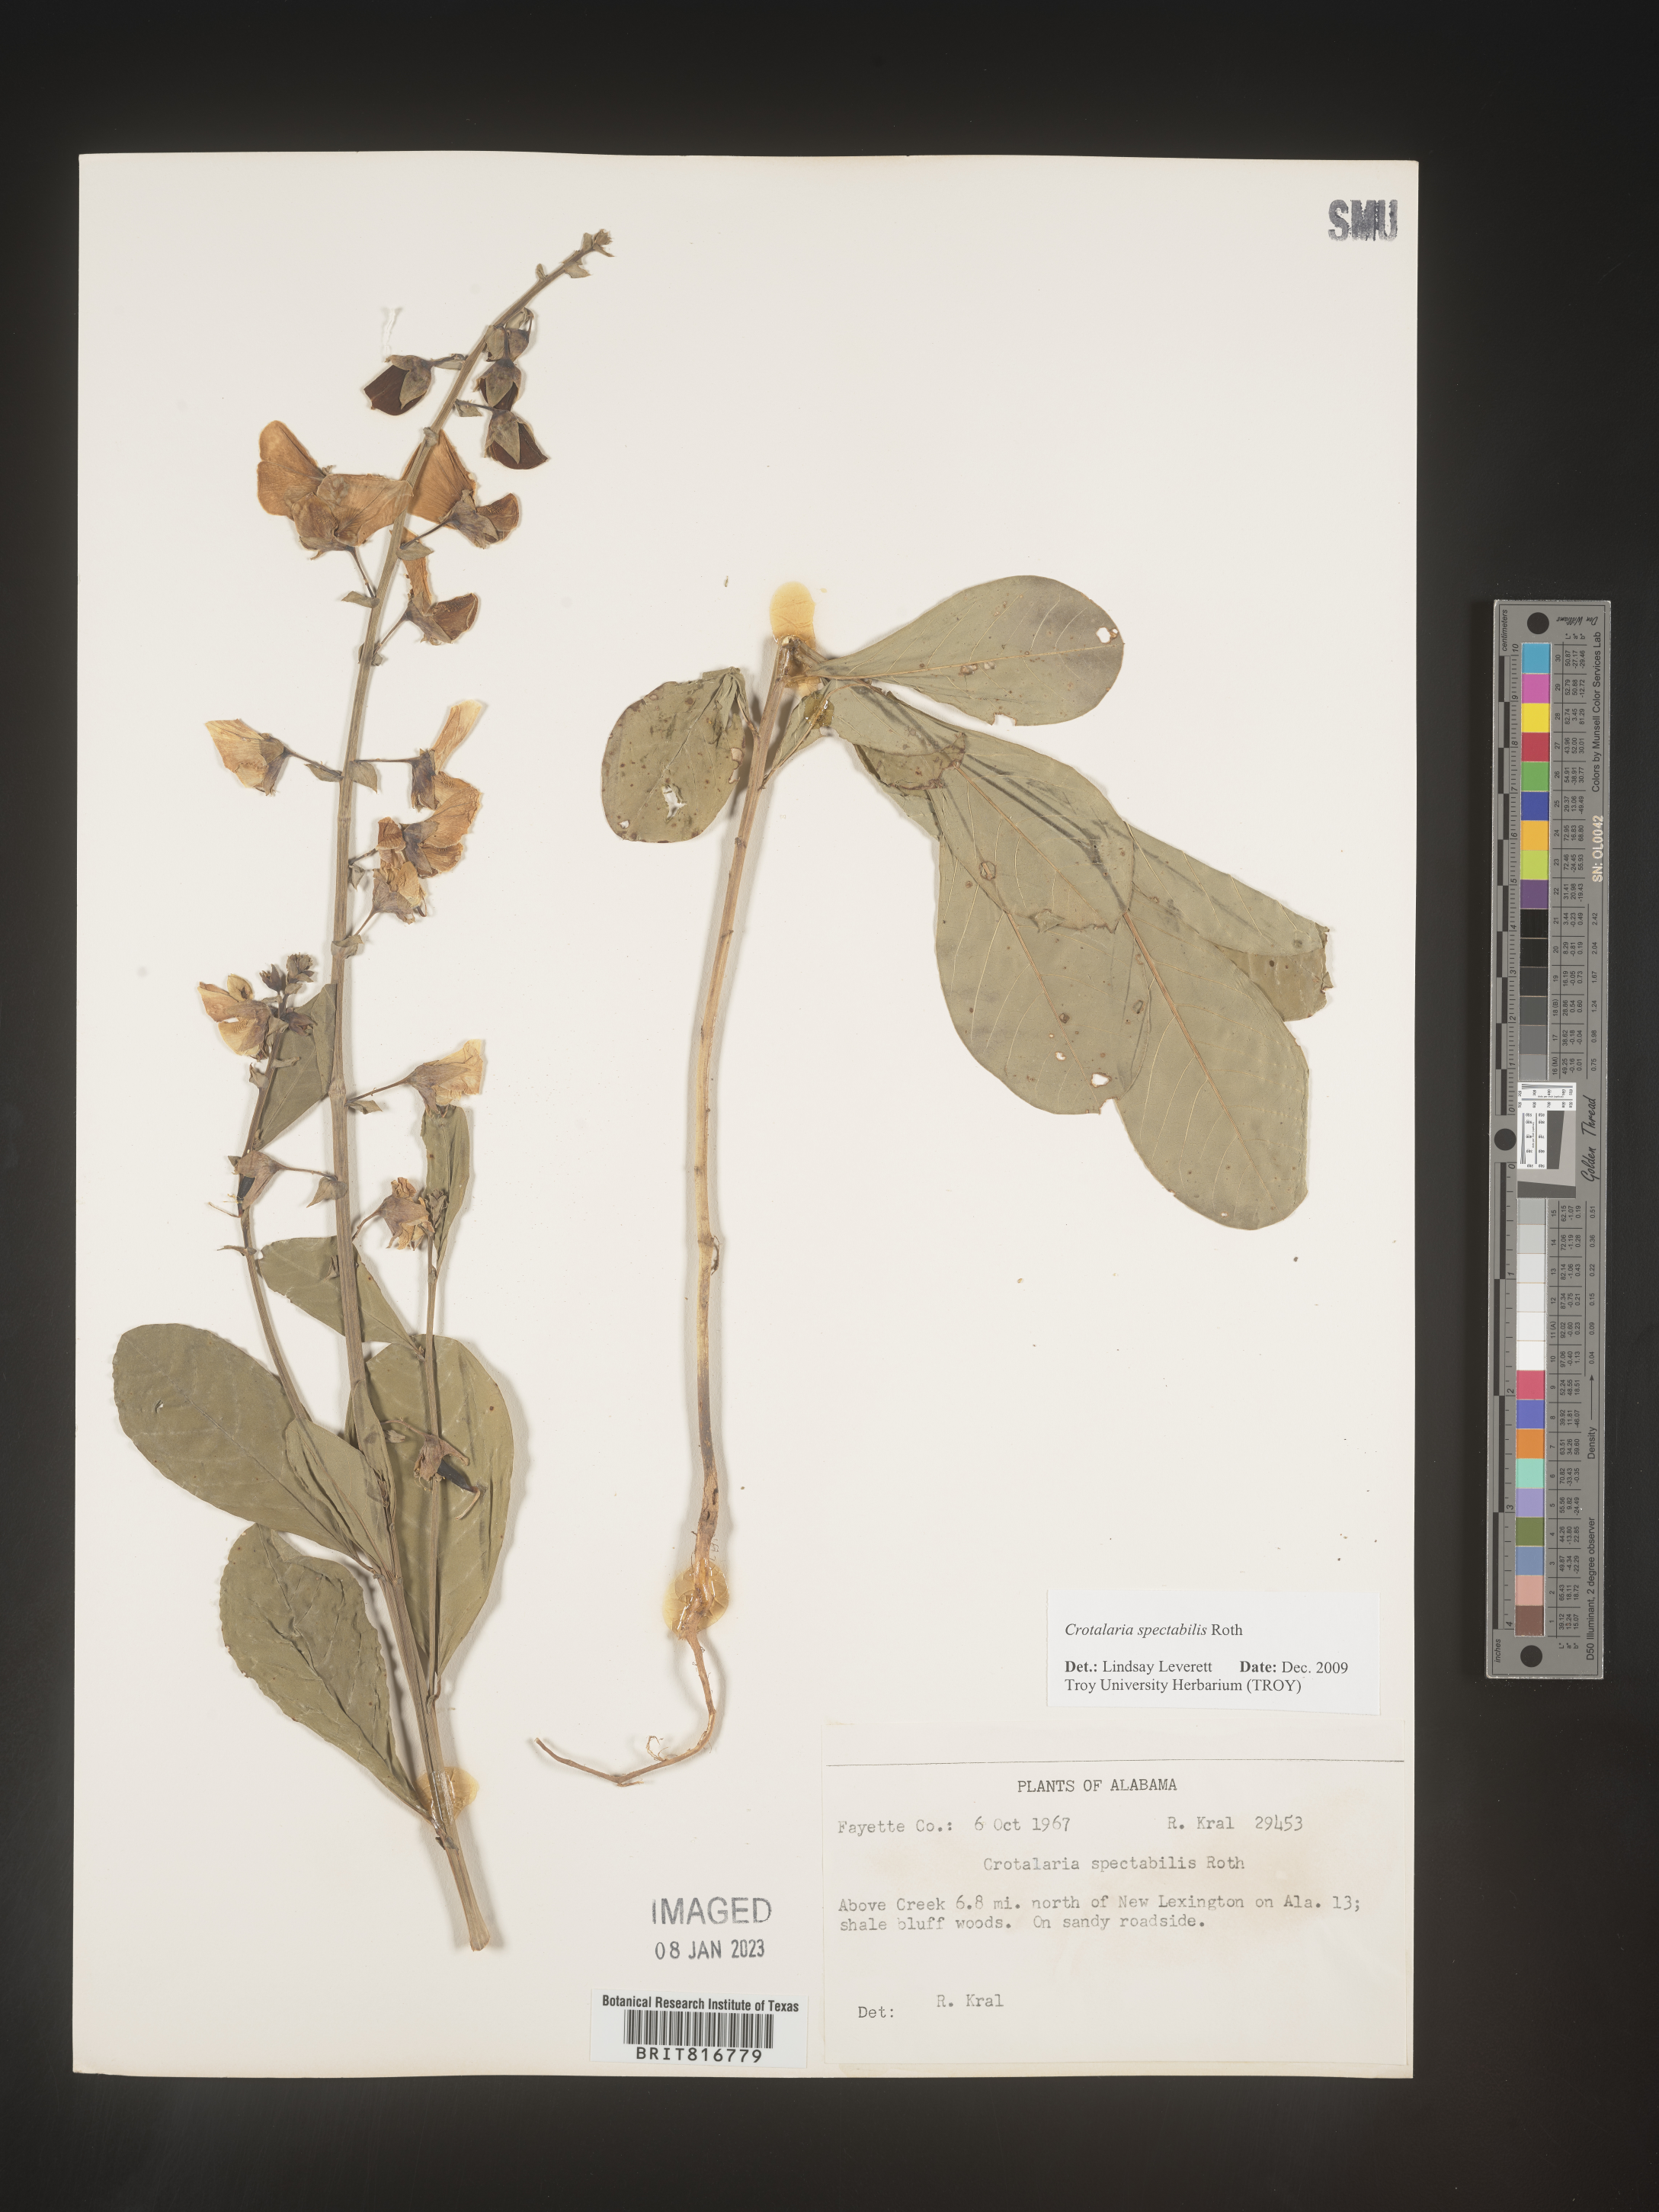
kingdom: Plantae
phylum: Tracheophyta
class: Magnoliopsida
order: Fabales
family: Fabaceae
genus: Crotalaria
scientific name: Crotalaria spectabilis
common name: Showy rattlebox
